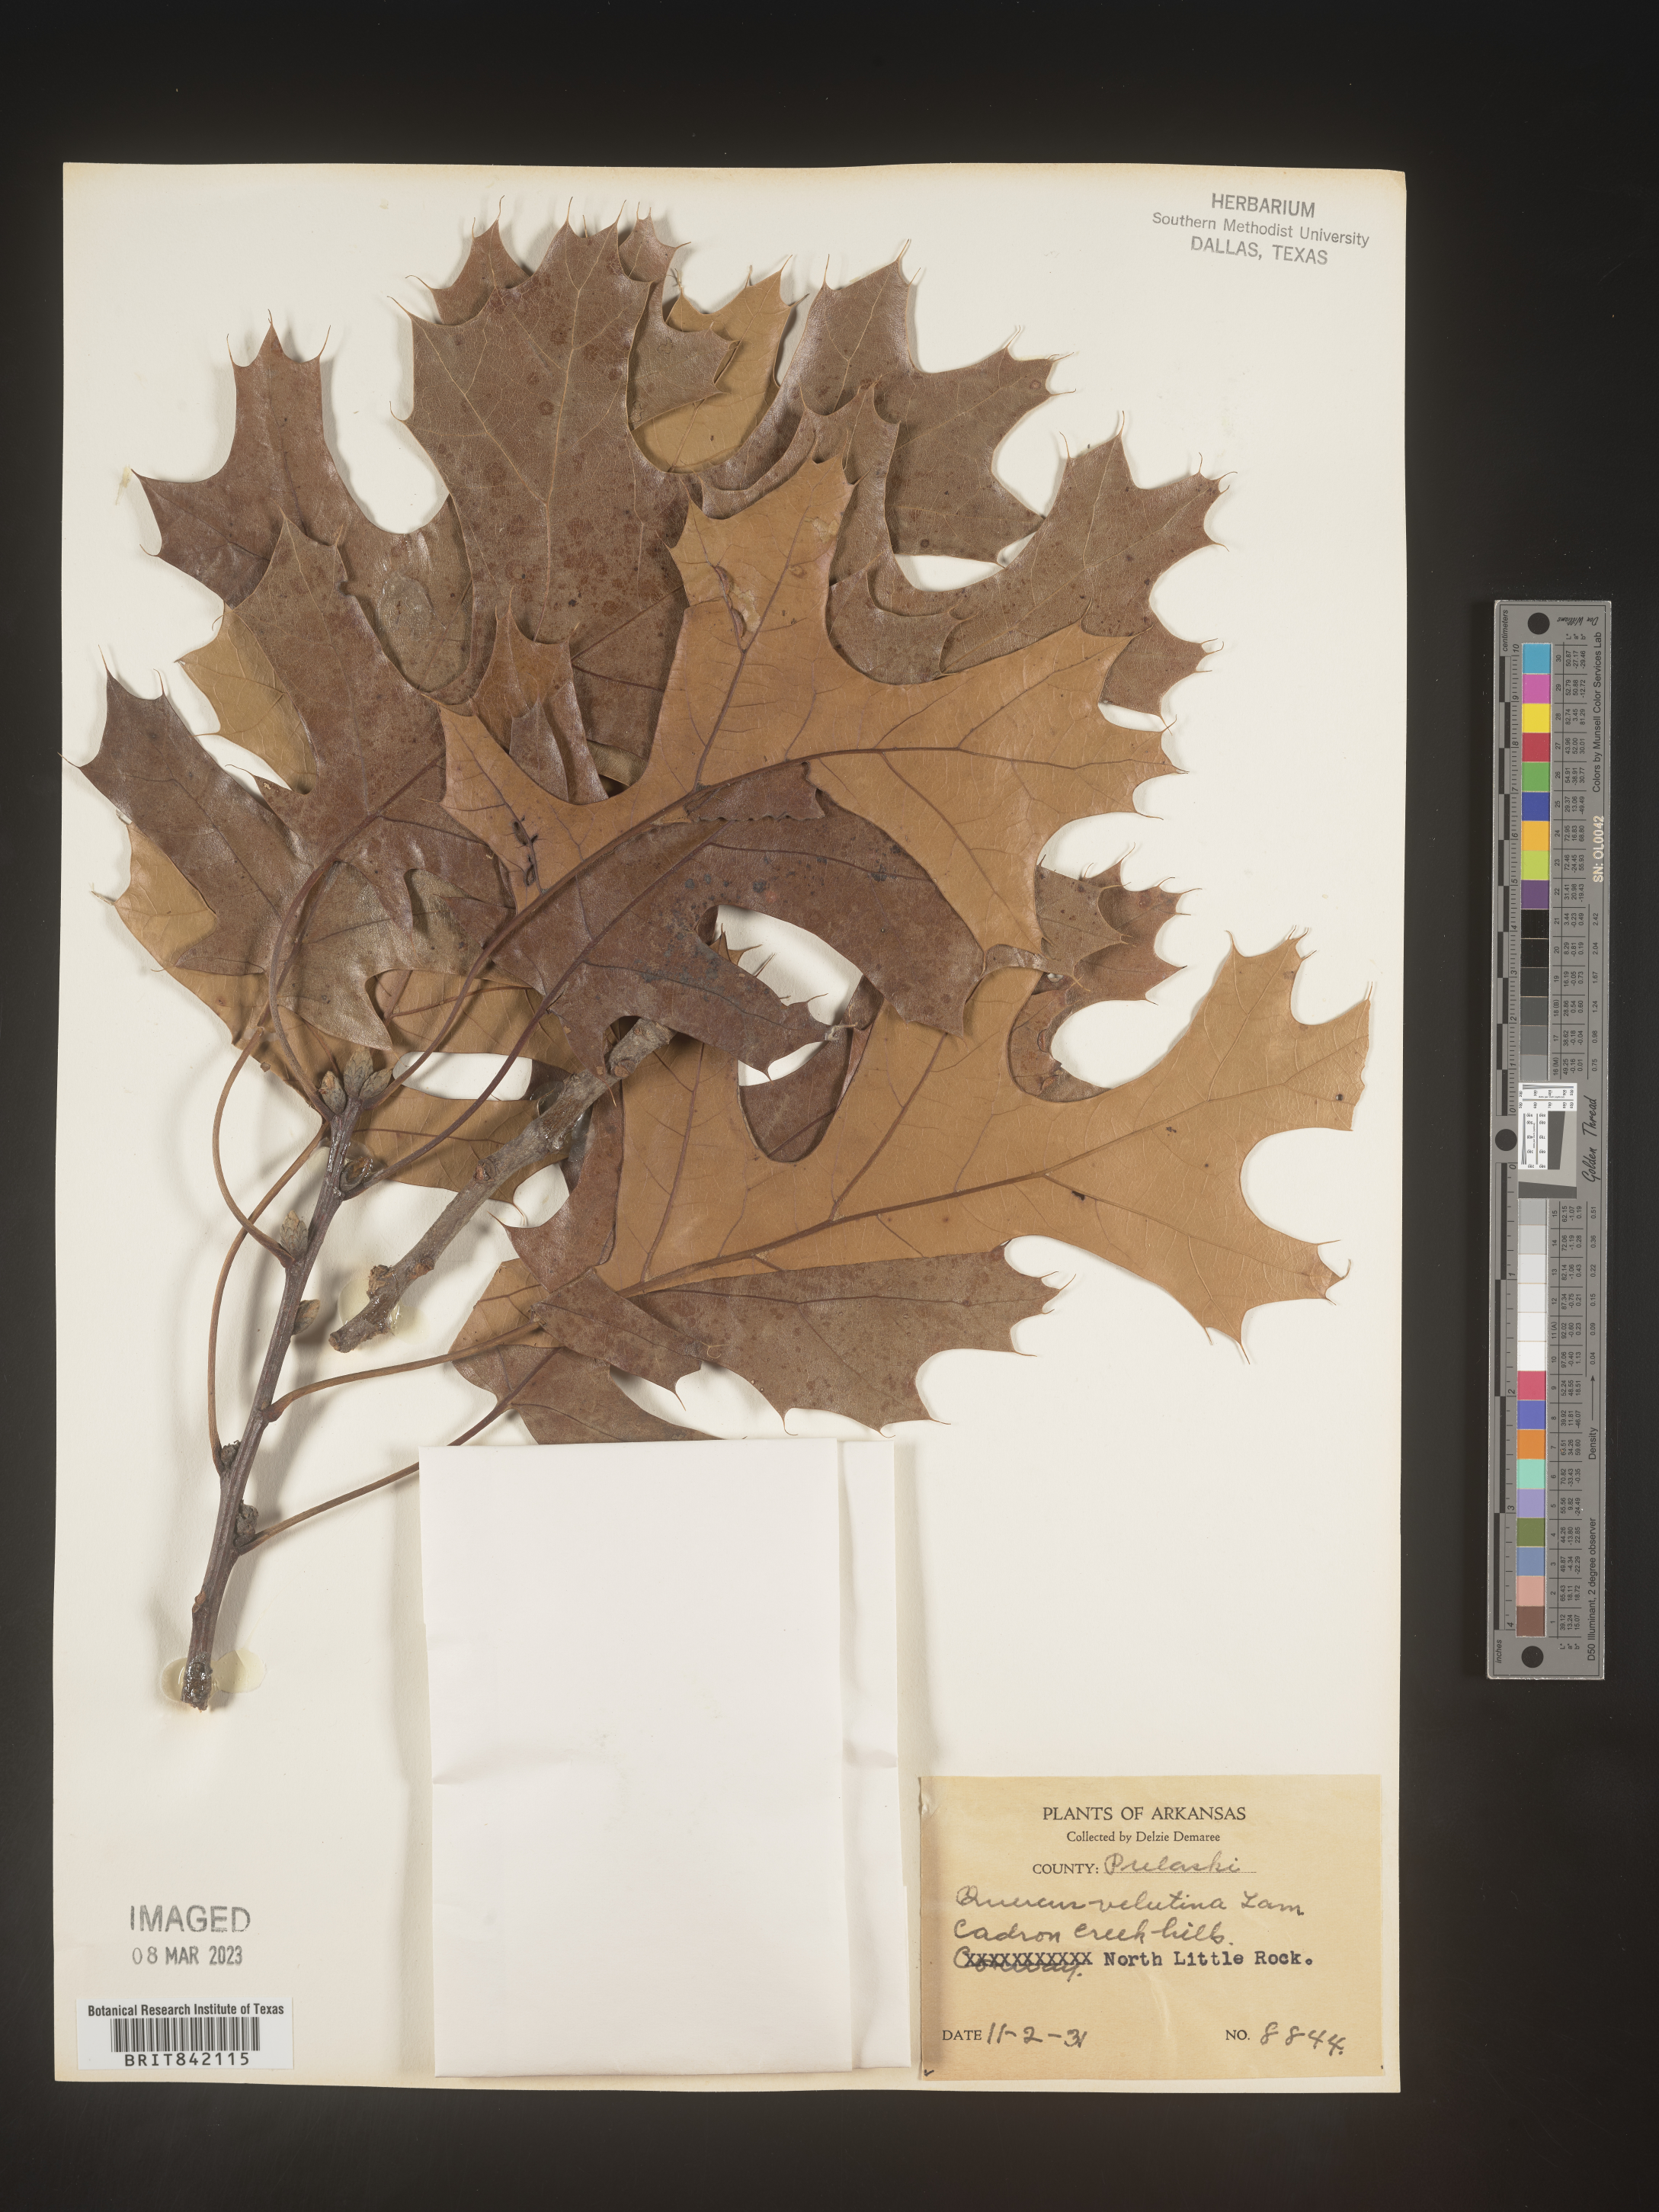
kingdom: Plantae
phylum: Tracheophyta
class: Magnoliopsida
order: Fagales
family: Fagaceae
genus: Quercus
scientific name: Quercus velutina
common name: Black oak
